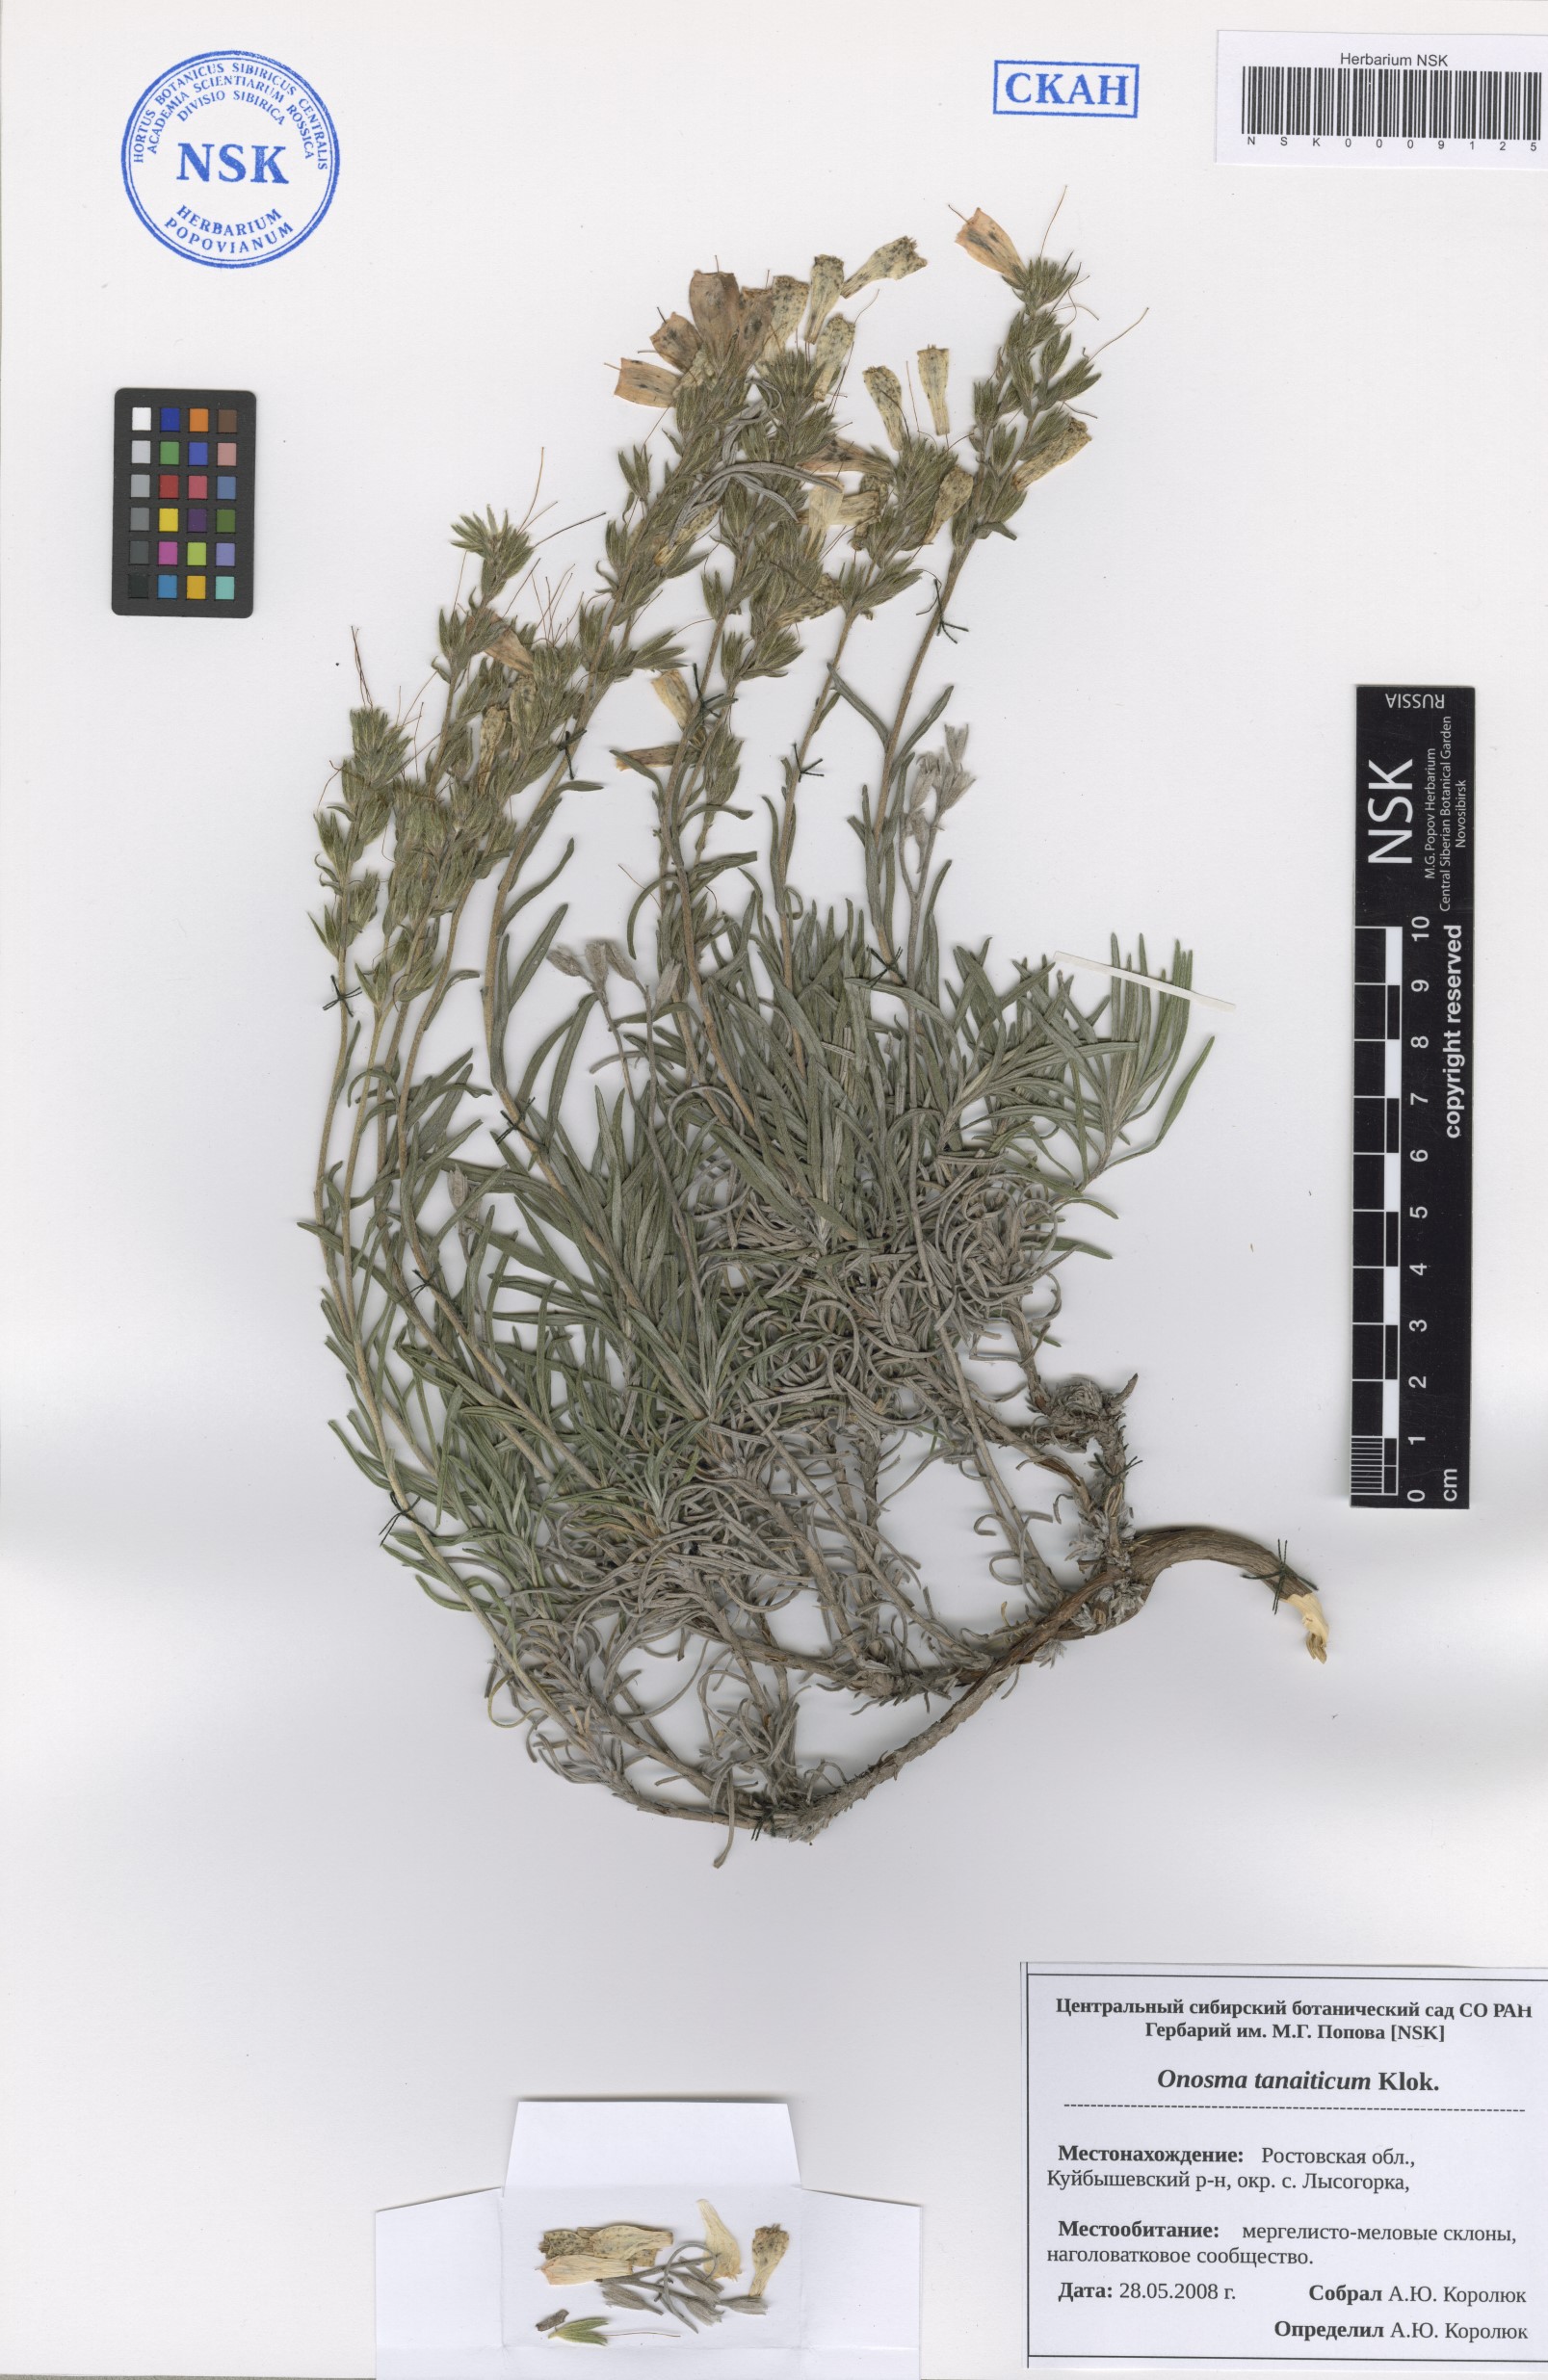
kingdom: Plantae
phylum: Tracheophyta
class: Magnoliopsida
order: Boraginales
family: Boraginaceae
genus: Onosma
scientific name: Onosma simplicissima
